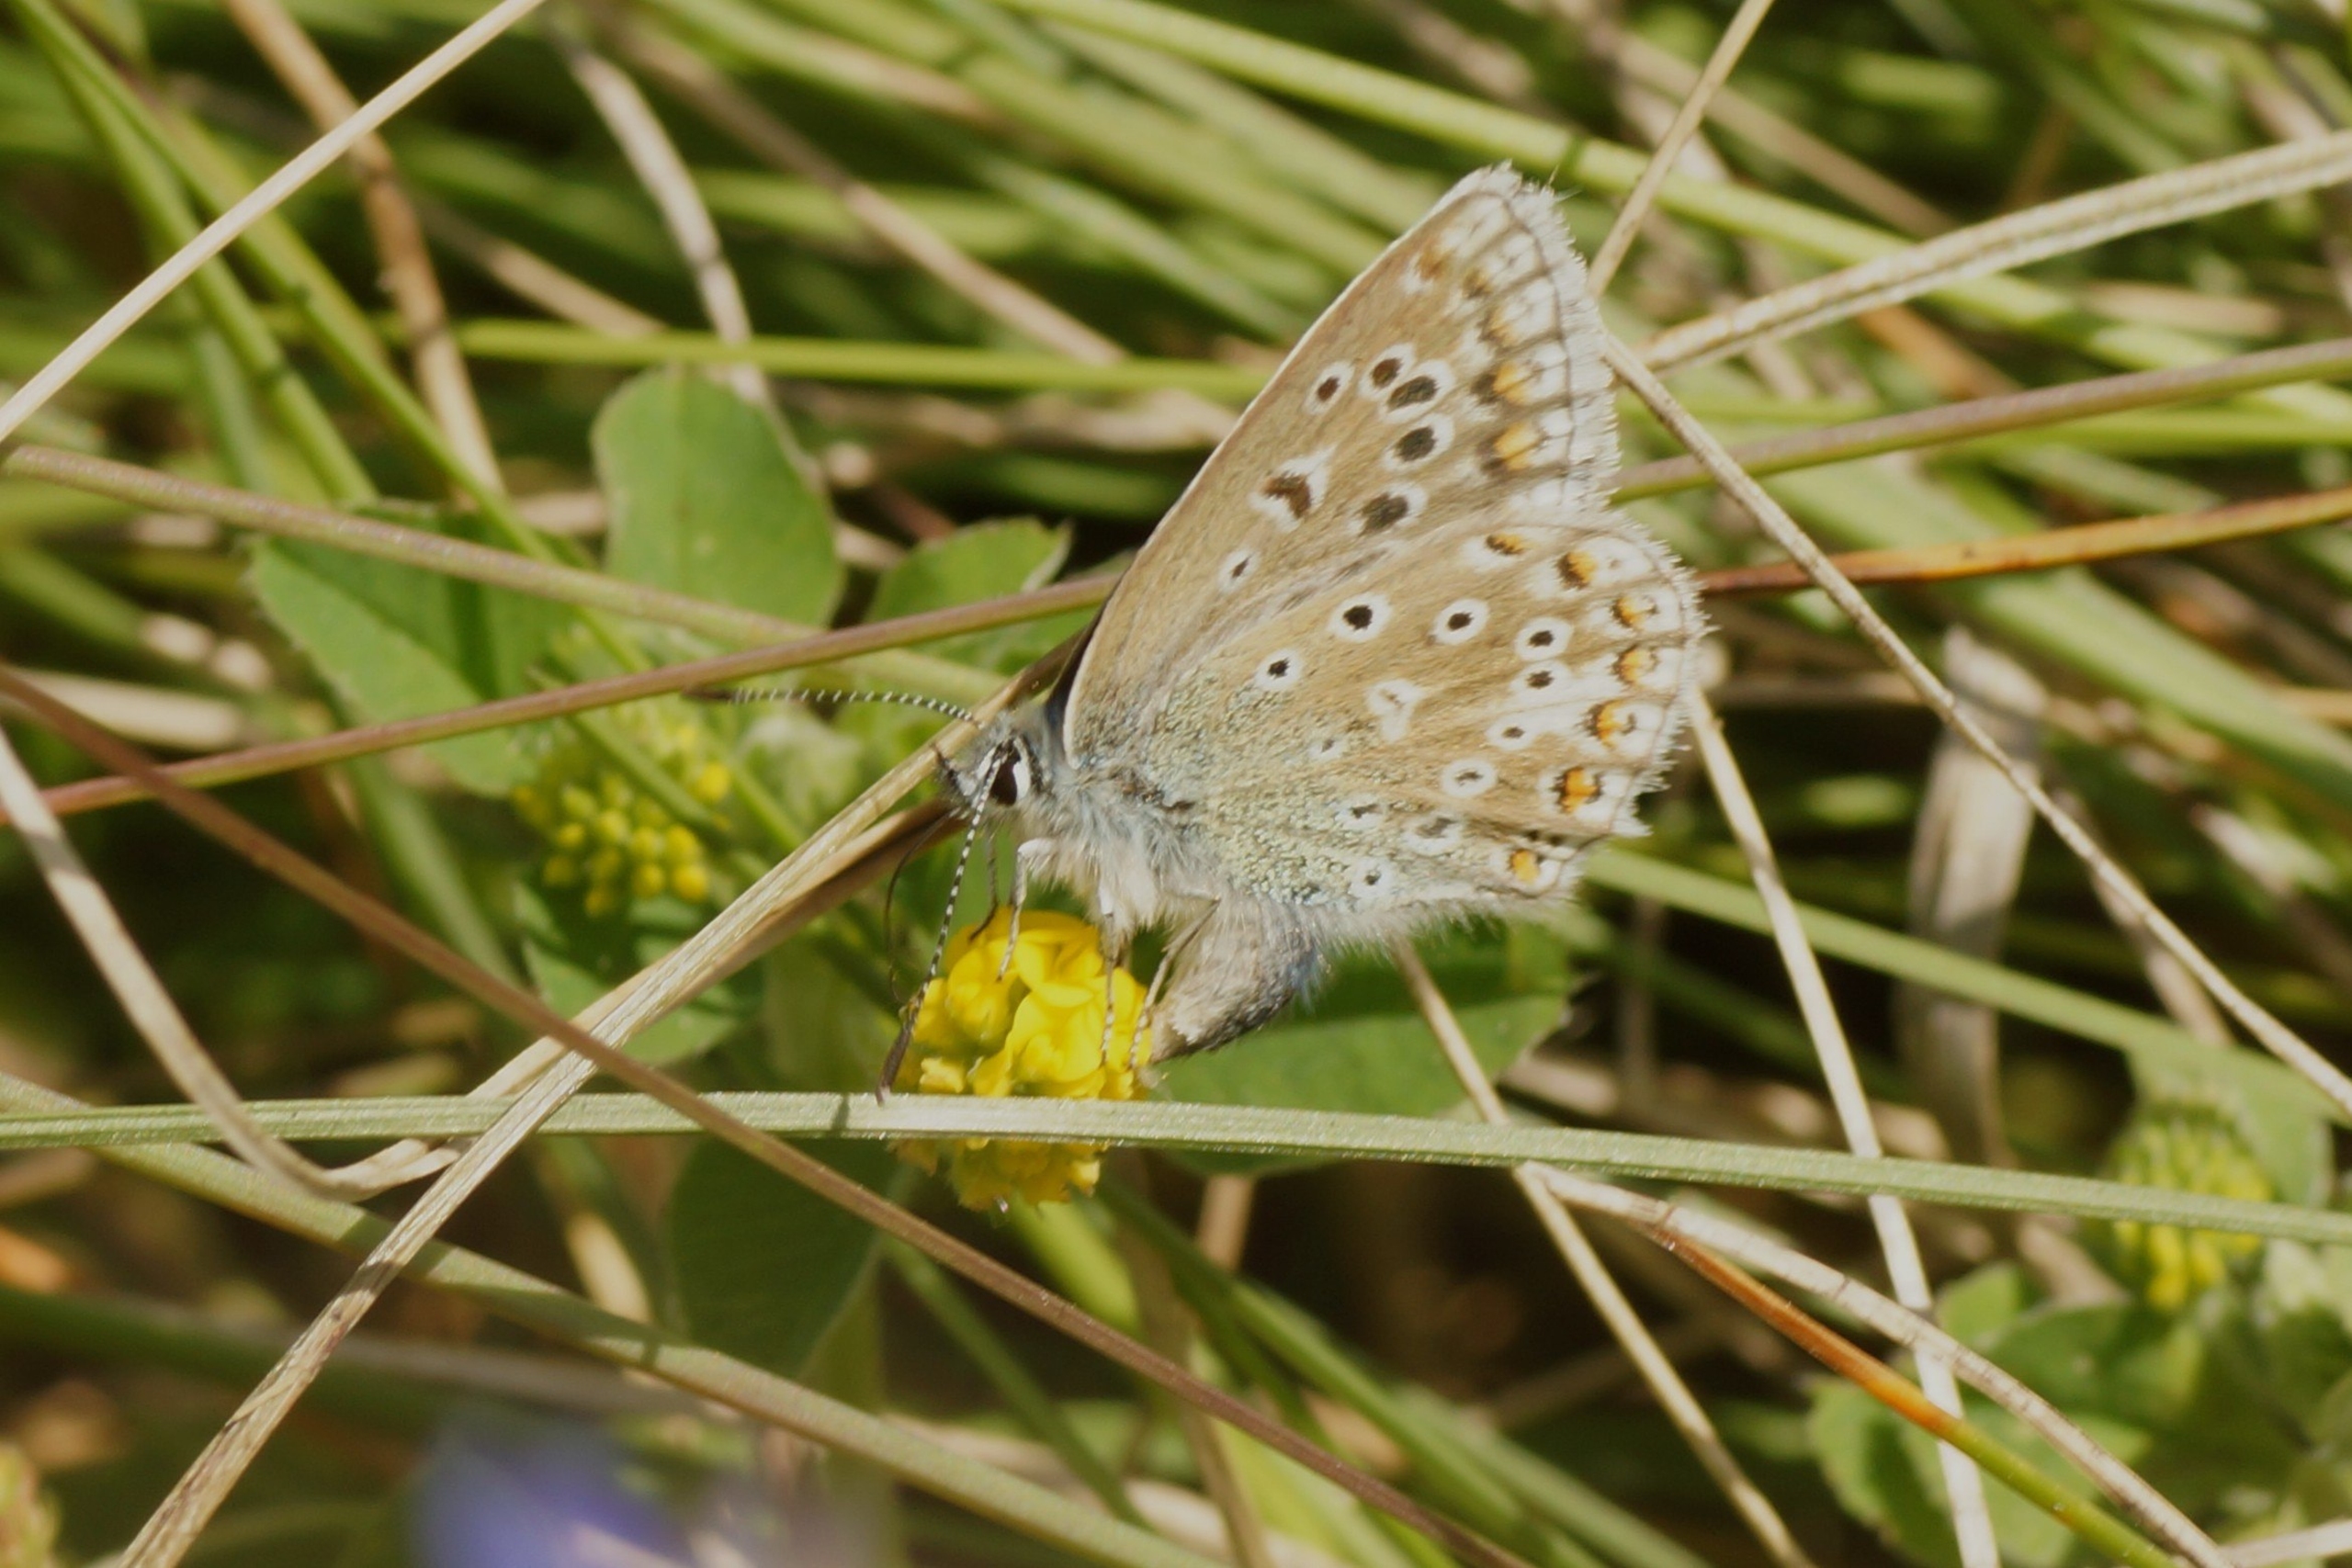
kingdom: Animalia
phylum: Arthropoda
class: Insecta
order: Lepidoptera
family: Lycaenidae
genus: Polyommatus
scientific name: Polyommatus icarus
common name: Almindelig blåfugl
